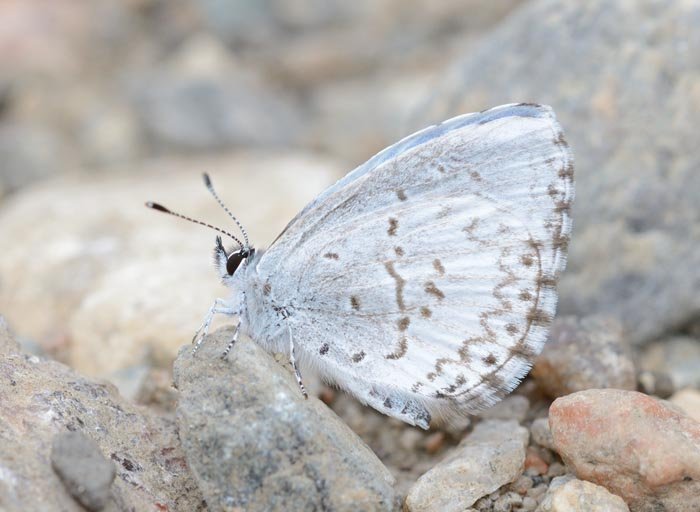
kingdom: Animalia
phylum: Arthropoda
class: Insecta
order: Lepidoptera
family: Lycaenidae
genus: Celastrina
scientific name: Celastrina
